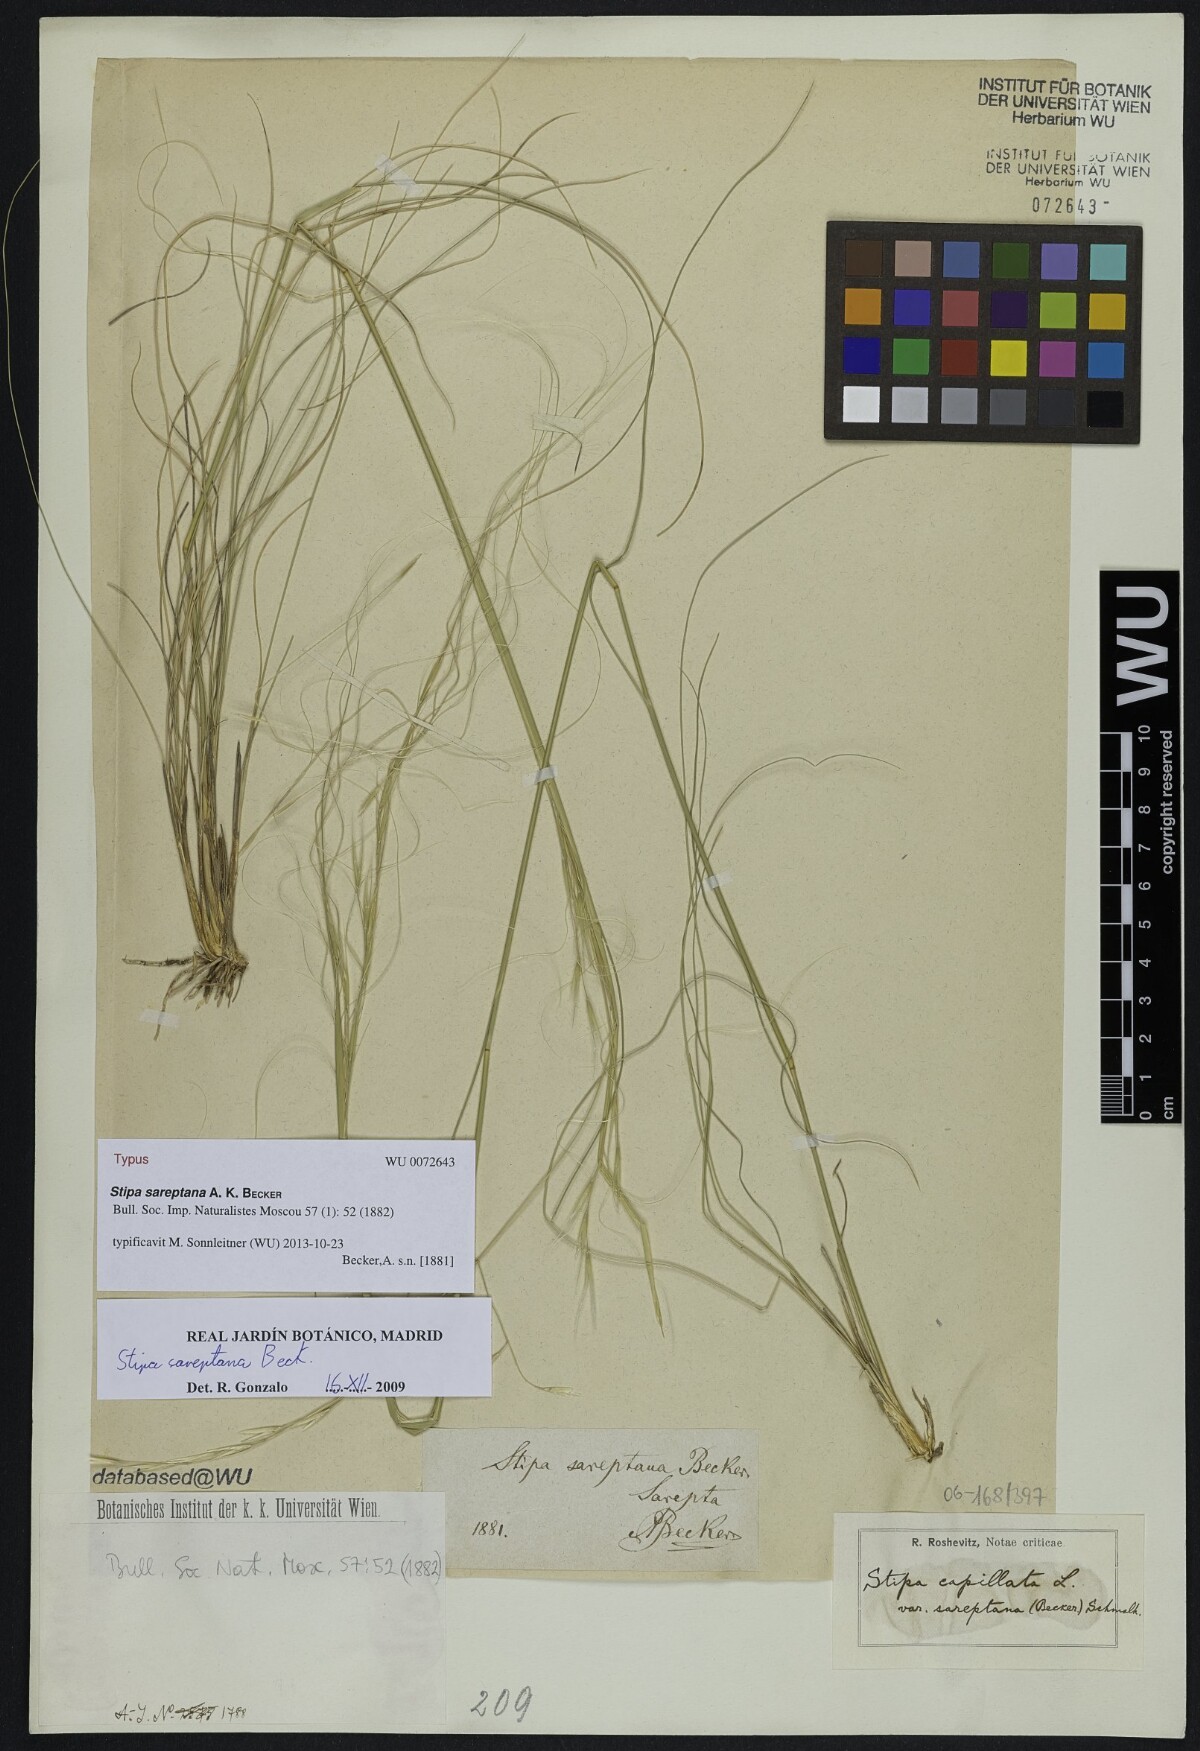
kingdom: Plantae
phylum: Tracheophyta
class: Liliopsida
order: Poales
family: Poaceae
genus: Stipa
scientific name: Stipa sareptana
